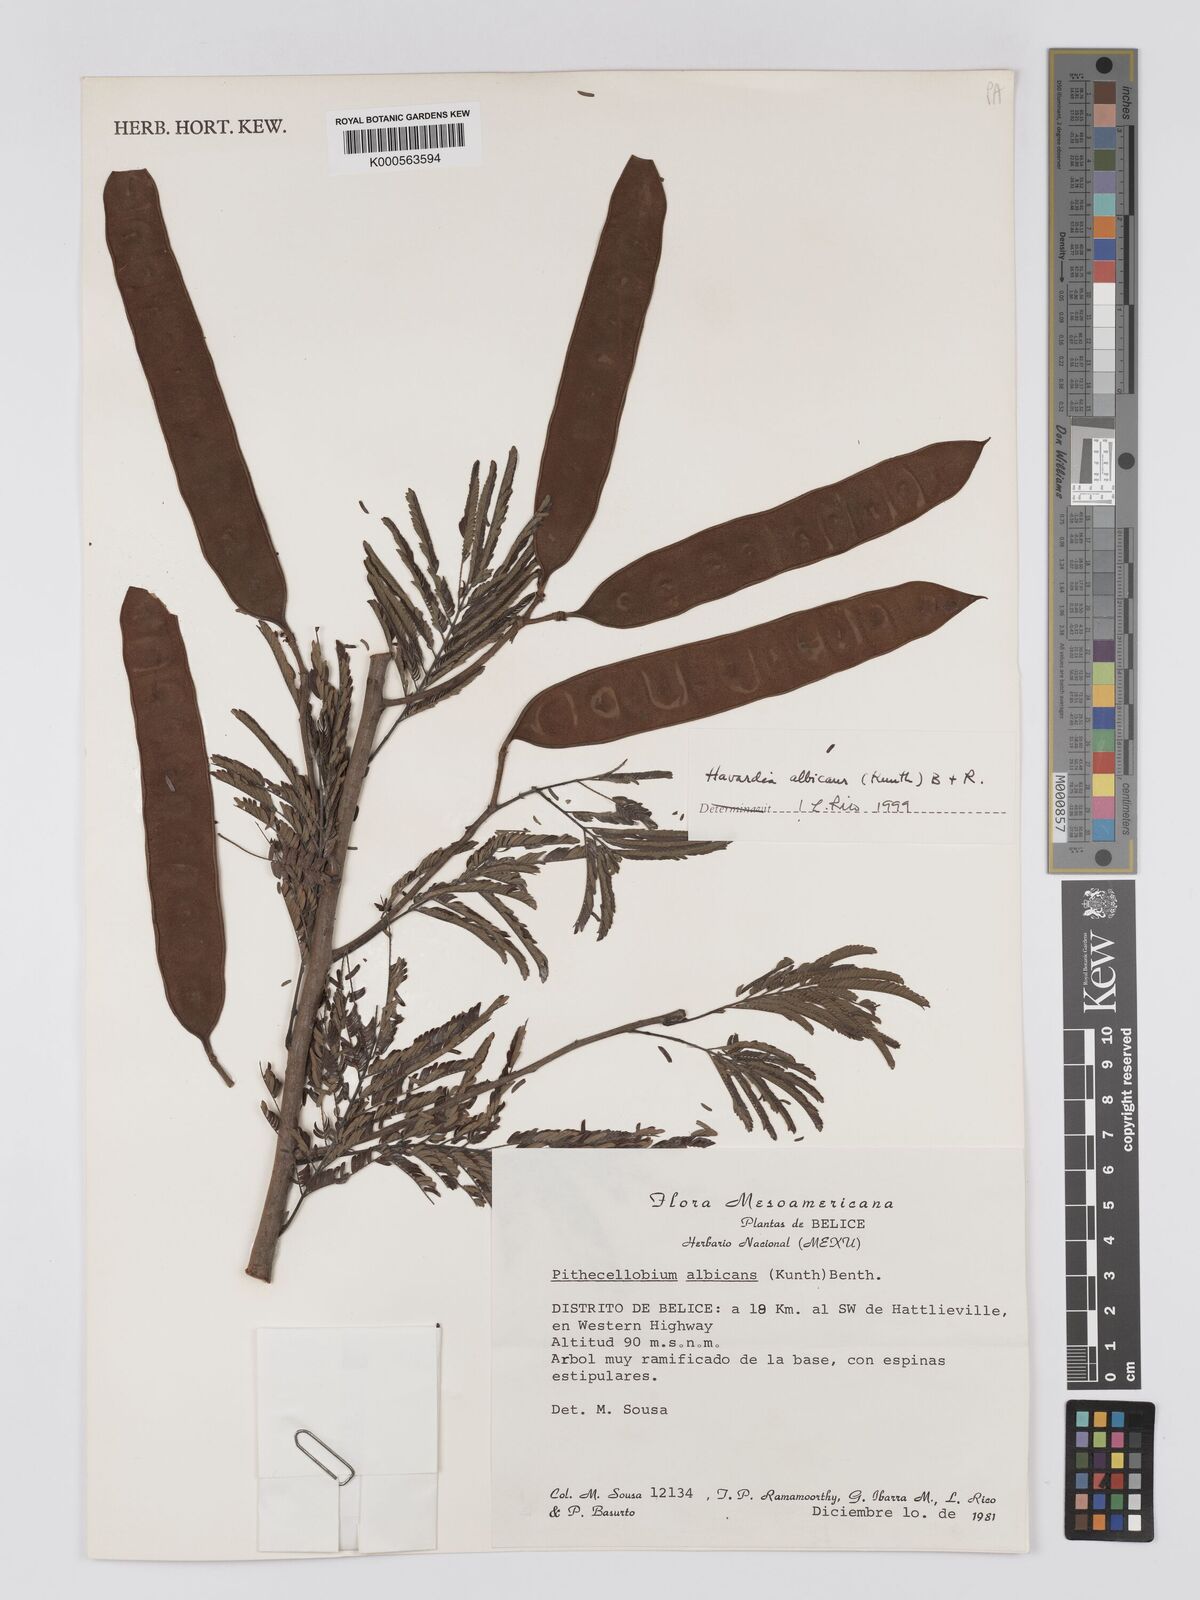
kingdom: Plantae
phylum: Tracheophyta
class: Magnoliopsida
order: Fabales
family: Fabaceae
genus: Havardia
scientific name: Havardia albicans
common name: Huisache
